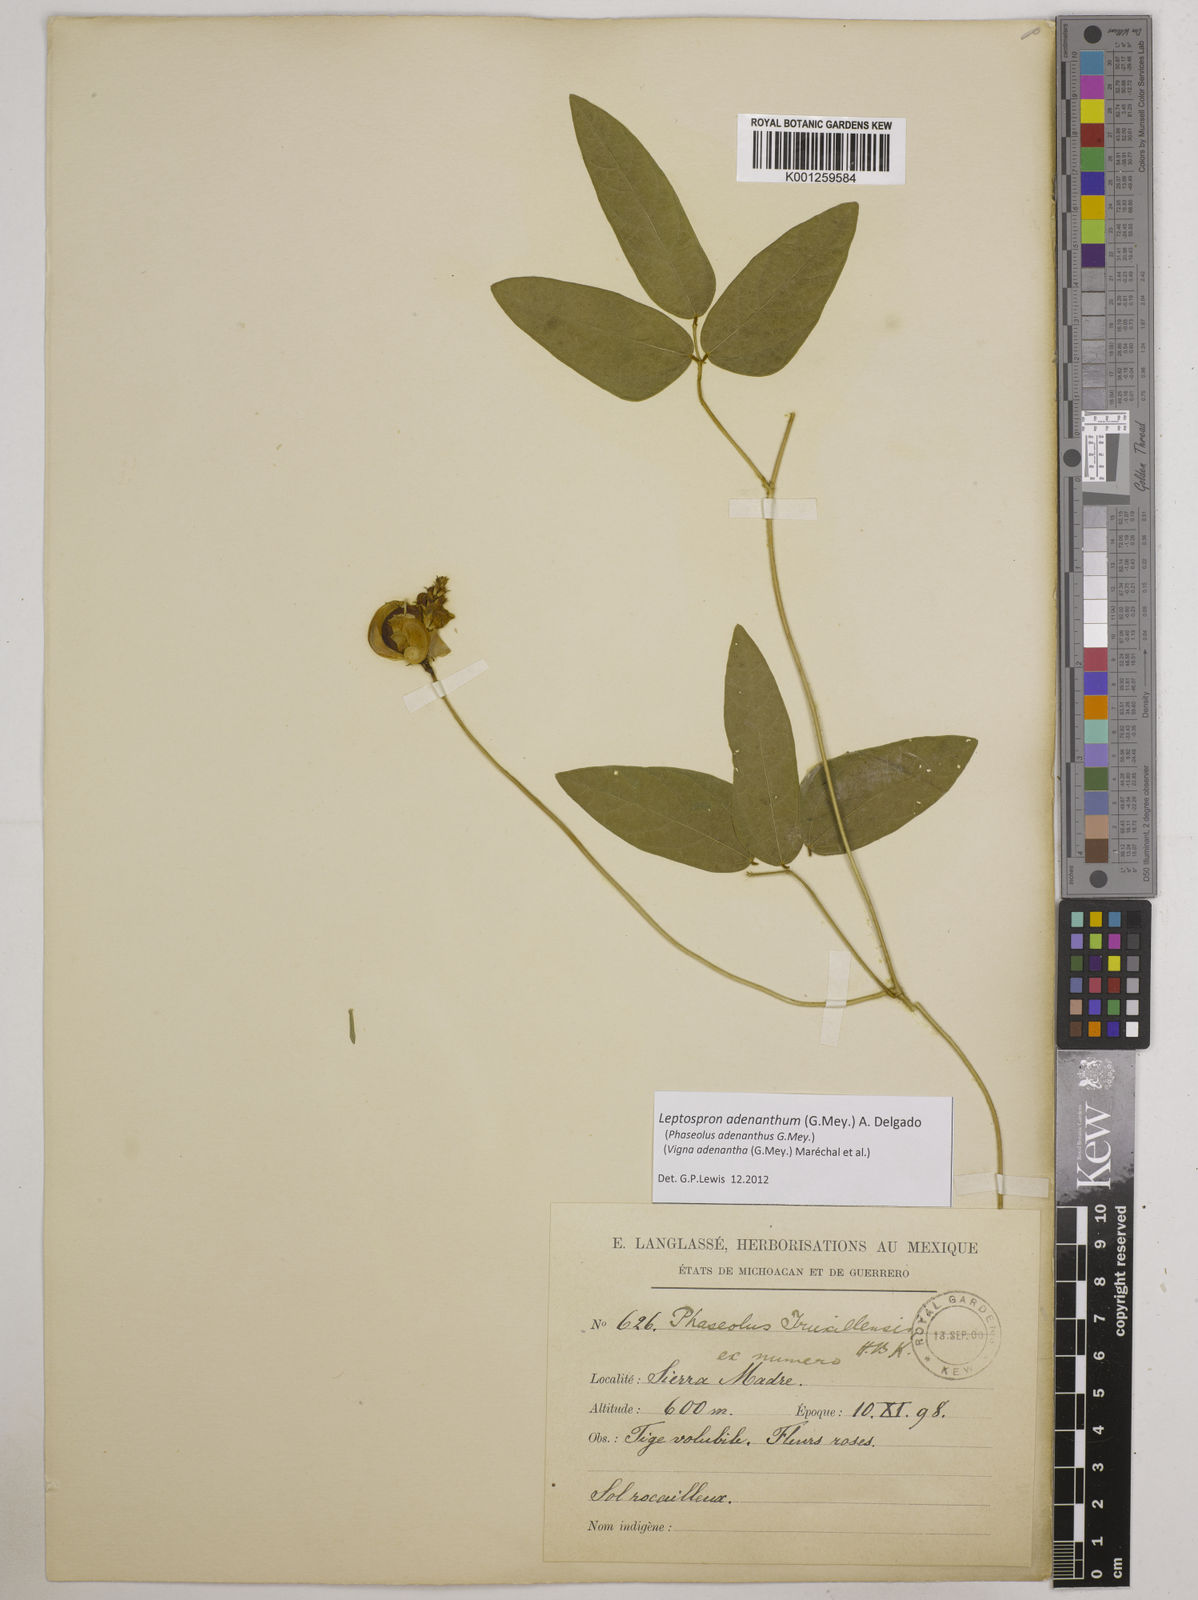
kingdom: Plantae
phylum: Tracheophyta
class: Magnoliopsida
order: Fabales
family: Fabaceae
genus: Leptospron
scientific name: Leptospron adenanthum
